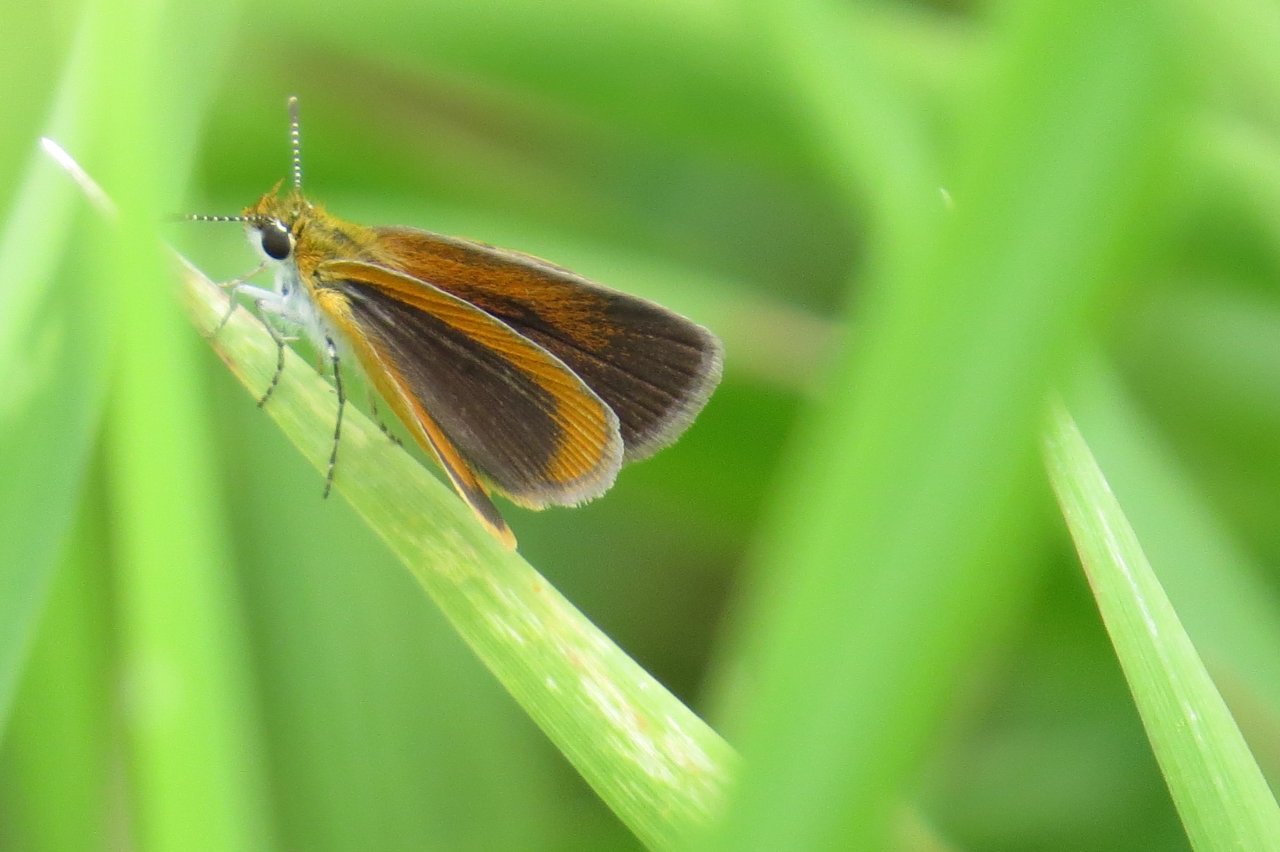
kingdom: Animalia
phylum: Arthropoda
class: Insecta
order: Lepidoptera
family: Hesperiidae
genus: Ancyloxypha
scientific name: Ancyloxypha numitor
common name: Least Skipper
